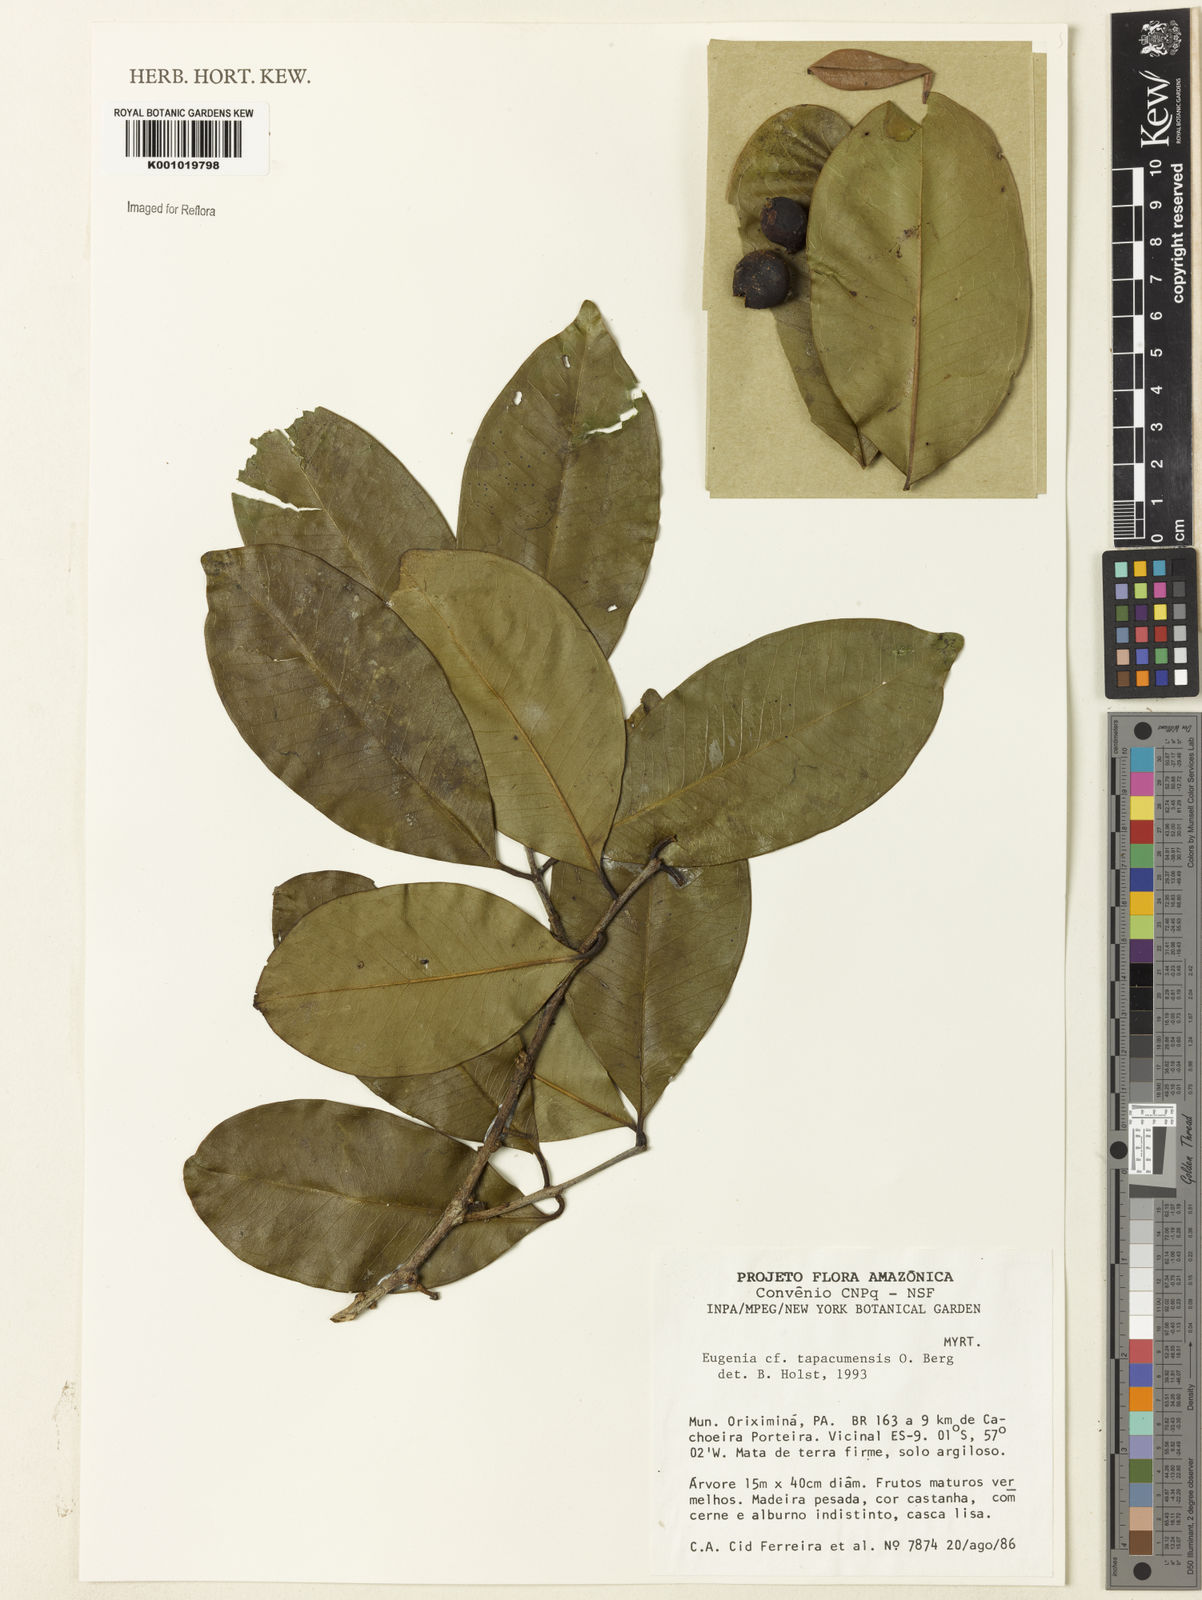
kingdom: Plantae
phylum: Tracheophyta
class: Magnoliopsida
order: Myrtales
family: Myrtaceae
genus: Eugenia
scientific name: Eugenia stictopetala
